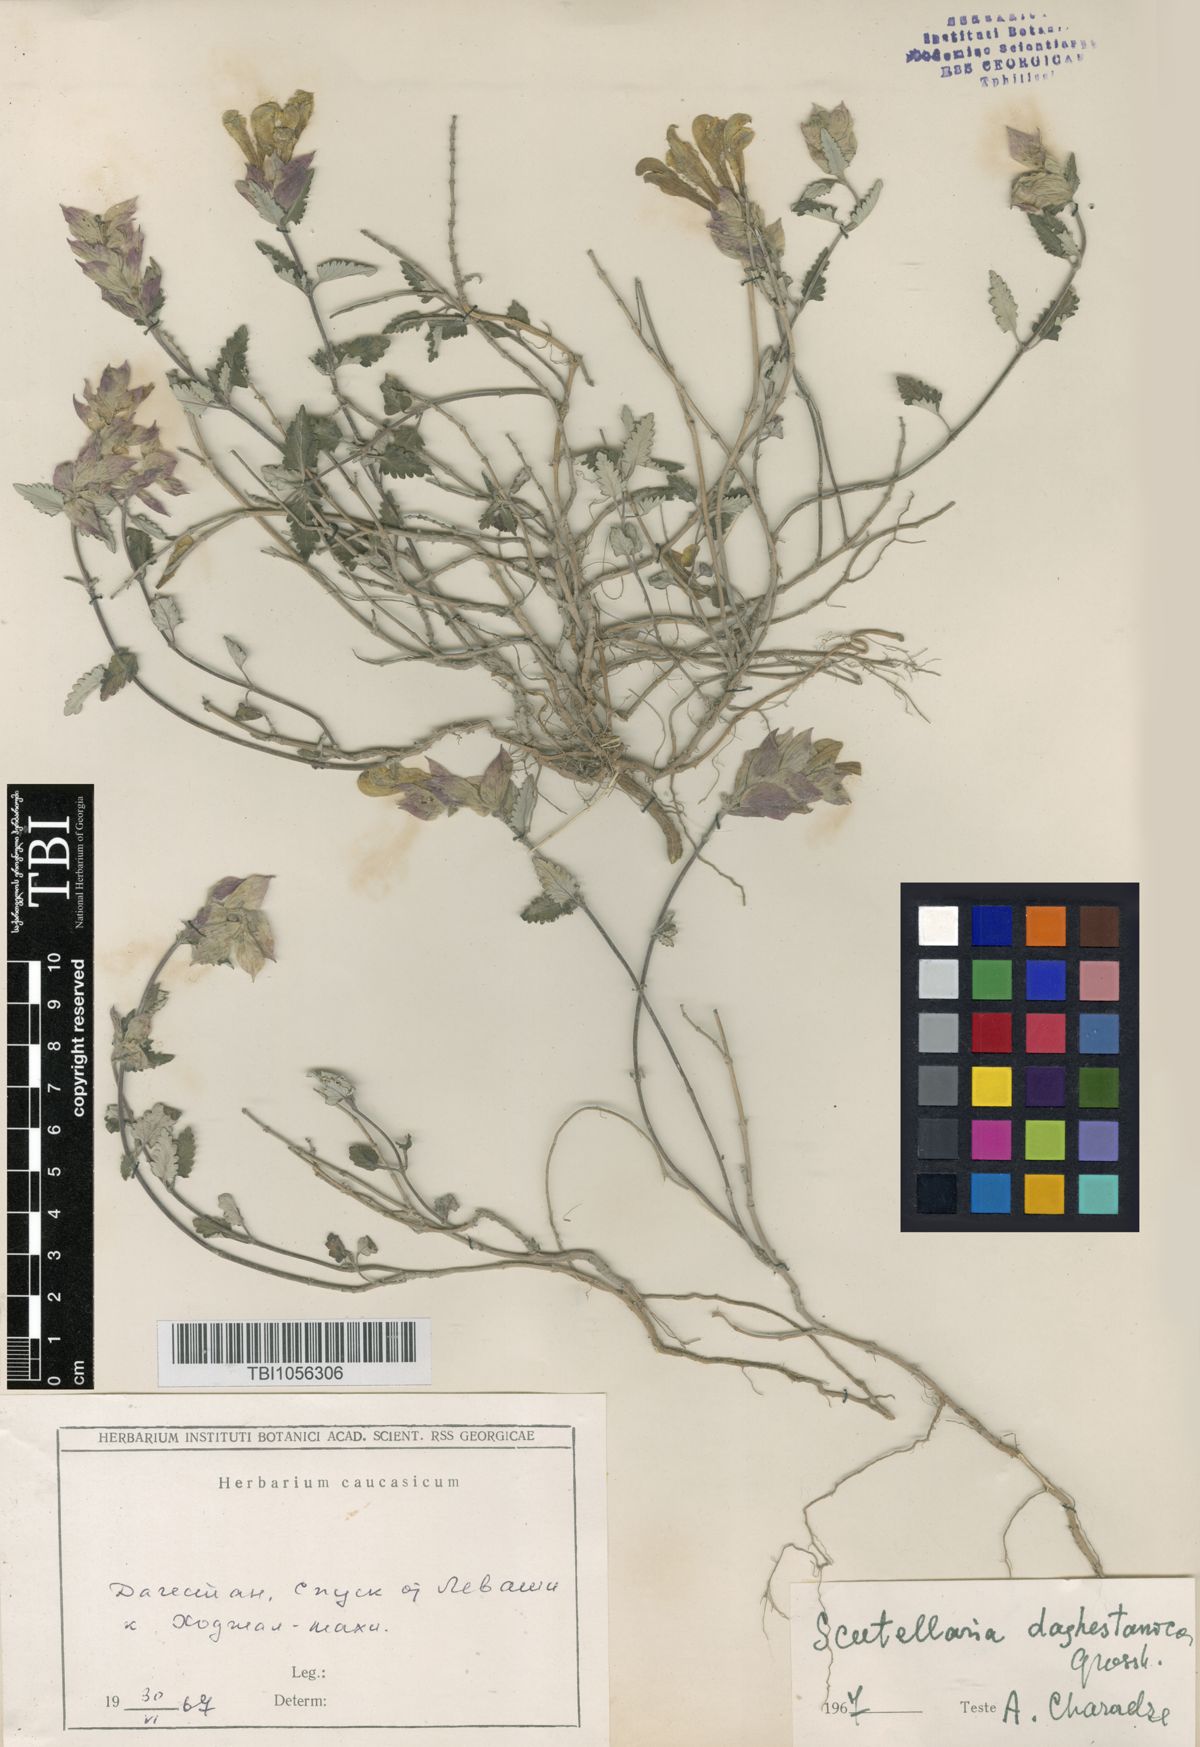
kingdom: Plantae
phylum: Tracheophyta
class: Magnoliopsida
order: Lamiales
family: Lamiaceae
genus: Scutellaria
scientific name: Scutellaria daghestanica
